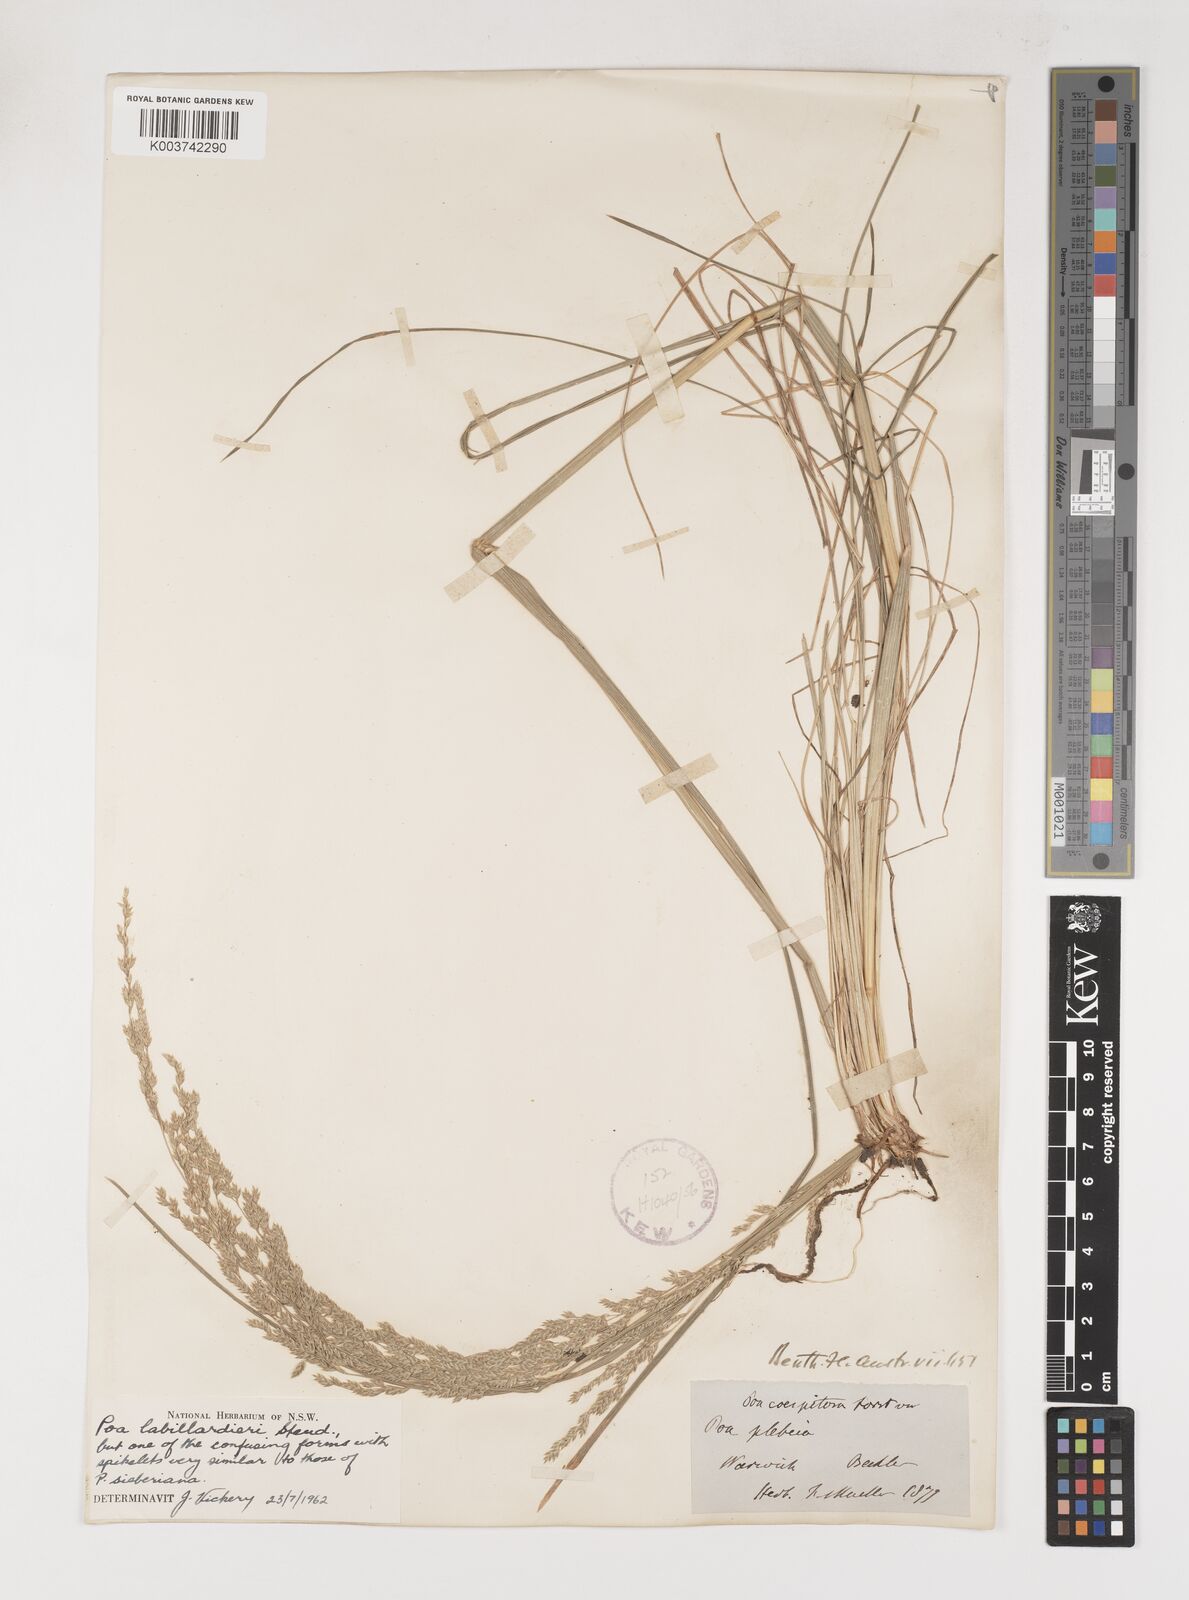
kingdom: Plantae
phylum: Tracheophyta
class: Liliopsida
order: Poales
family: Poaceae
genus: Poa
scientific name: Poa labillardierei
